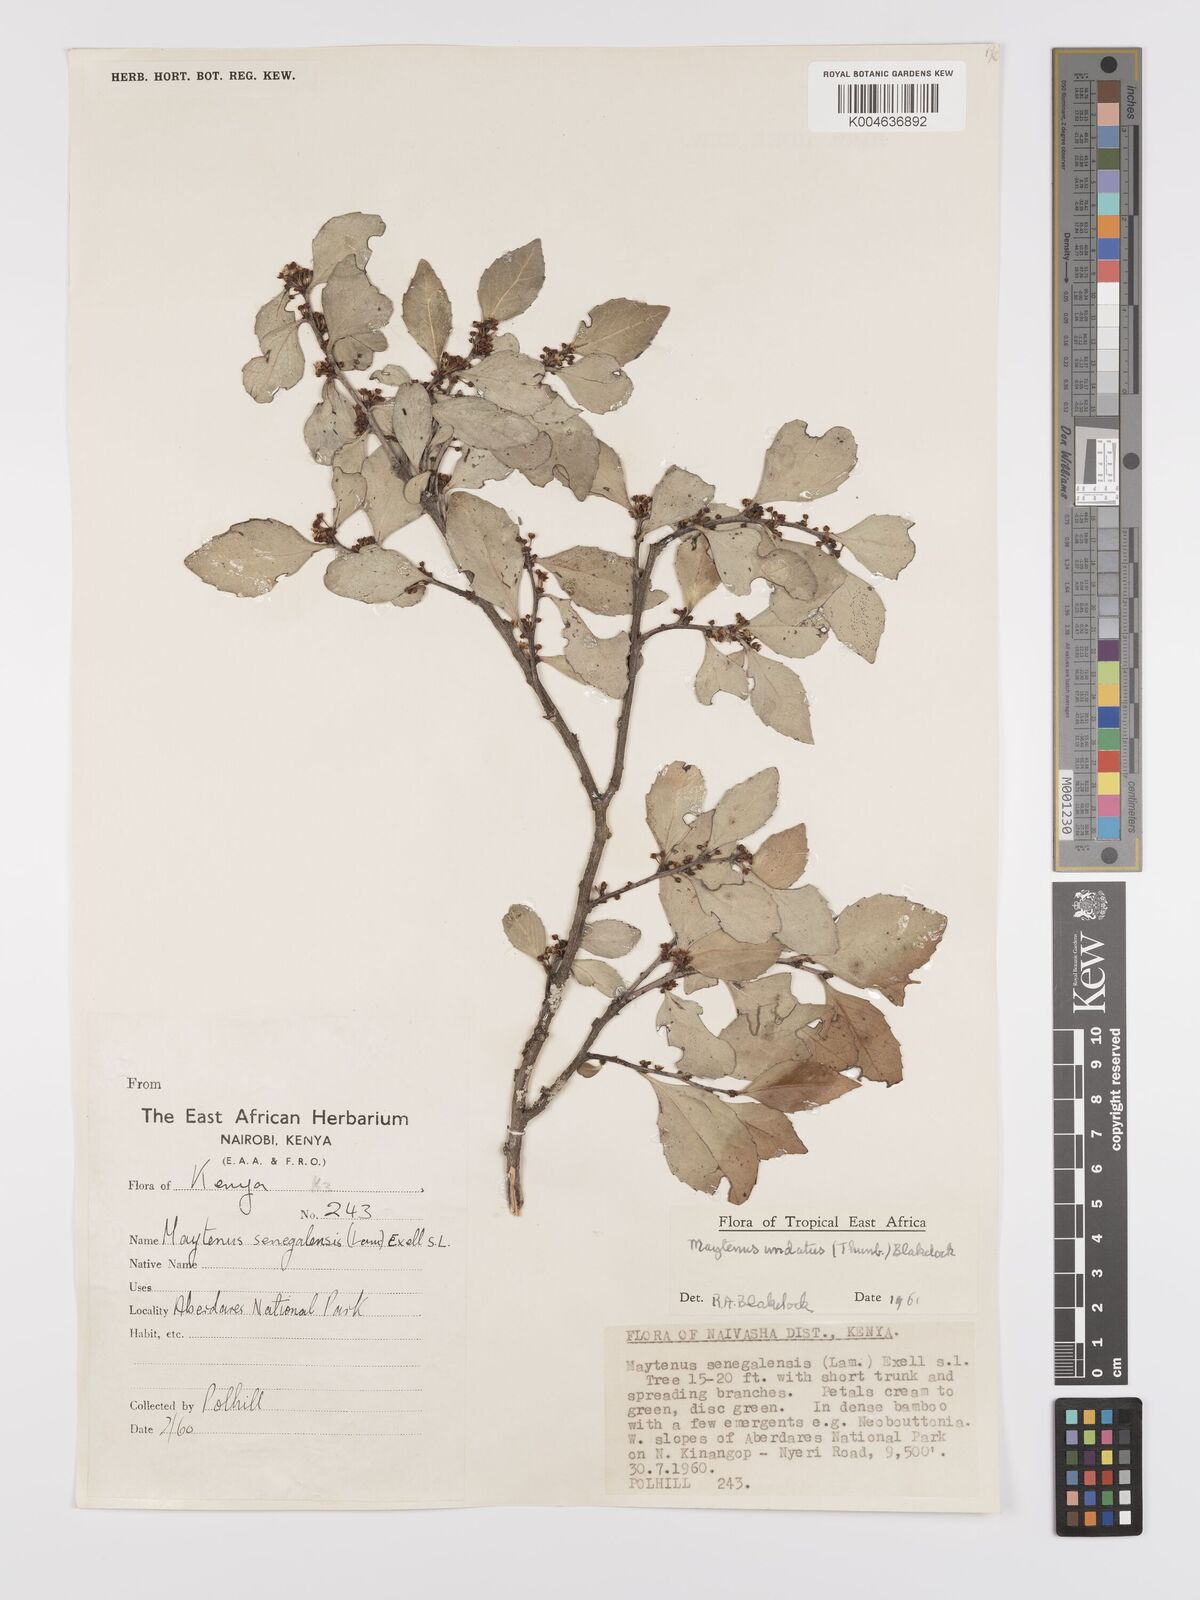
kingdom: Plantae
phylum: Tracheophyta
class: Magnoliopsida
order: Celastrales
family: Celastraceae
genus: Gymnosporia
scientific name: Gymnosporia undata
